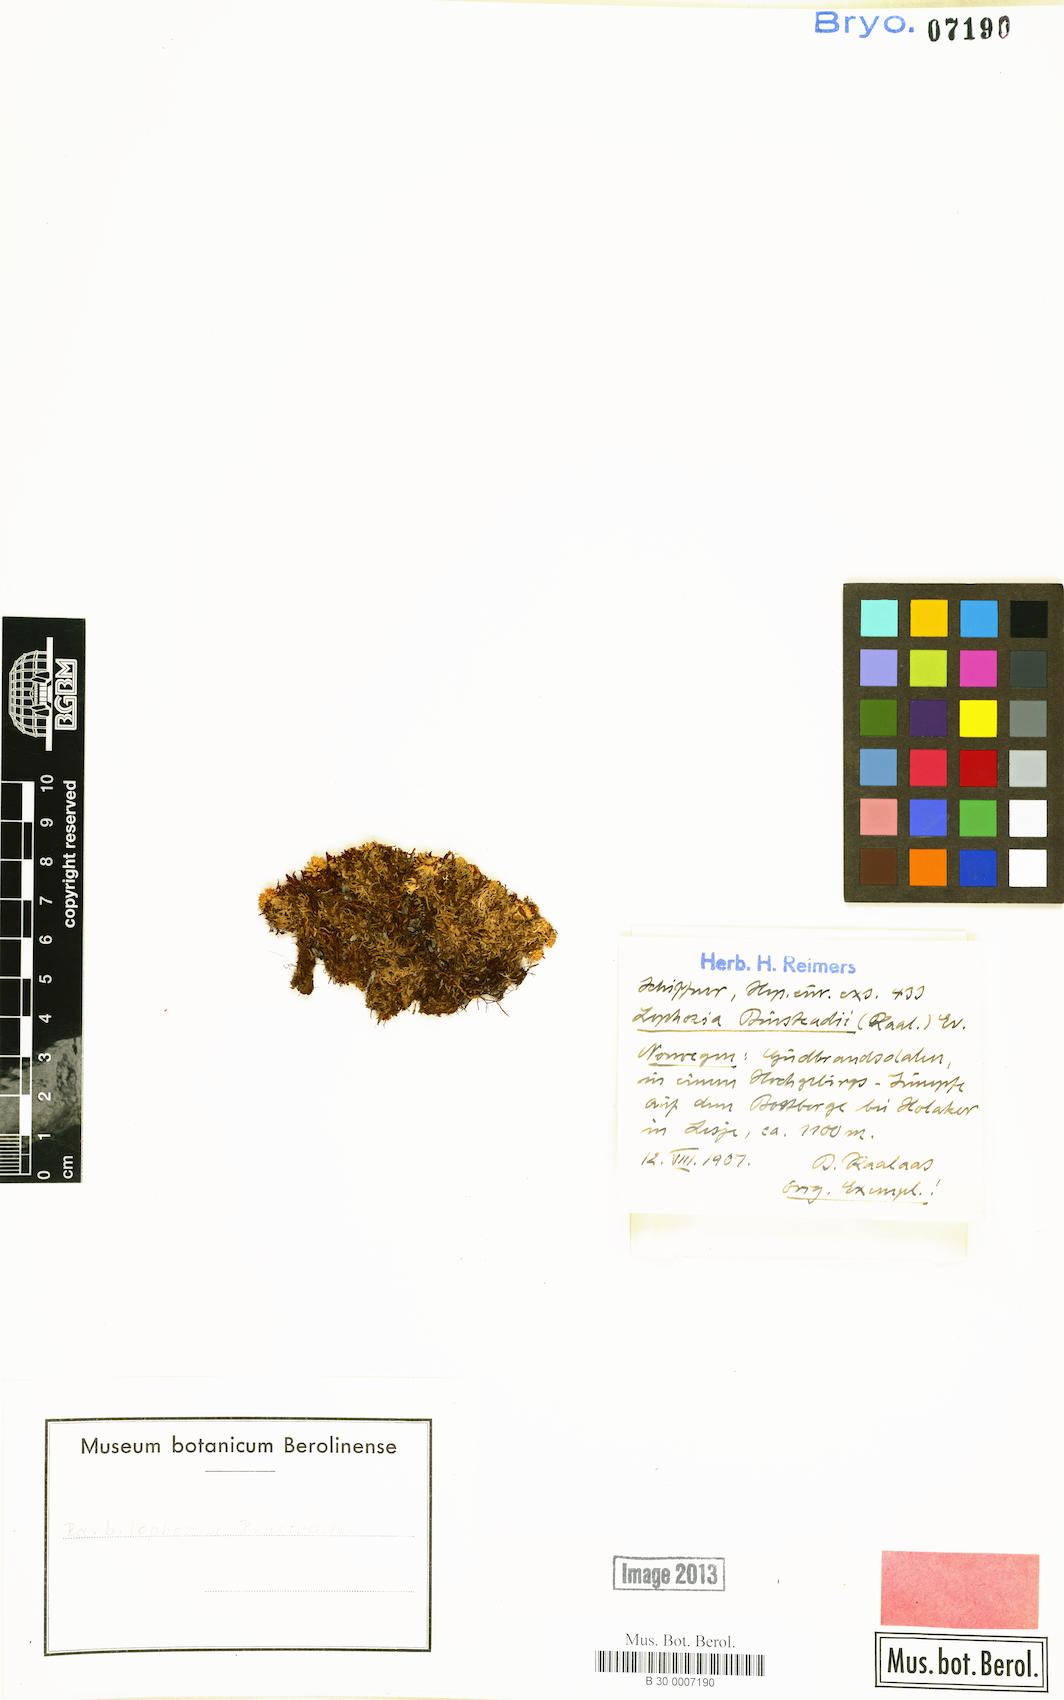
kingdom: Plantae
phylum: Marchantiophyta
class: Jungermanniopsida
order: Jungermanniales
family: Anastrophyllaceae
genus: Neoorthocaulis
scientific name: Neoorthocaulis binsteadii
